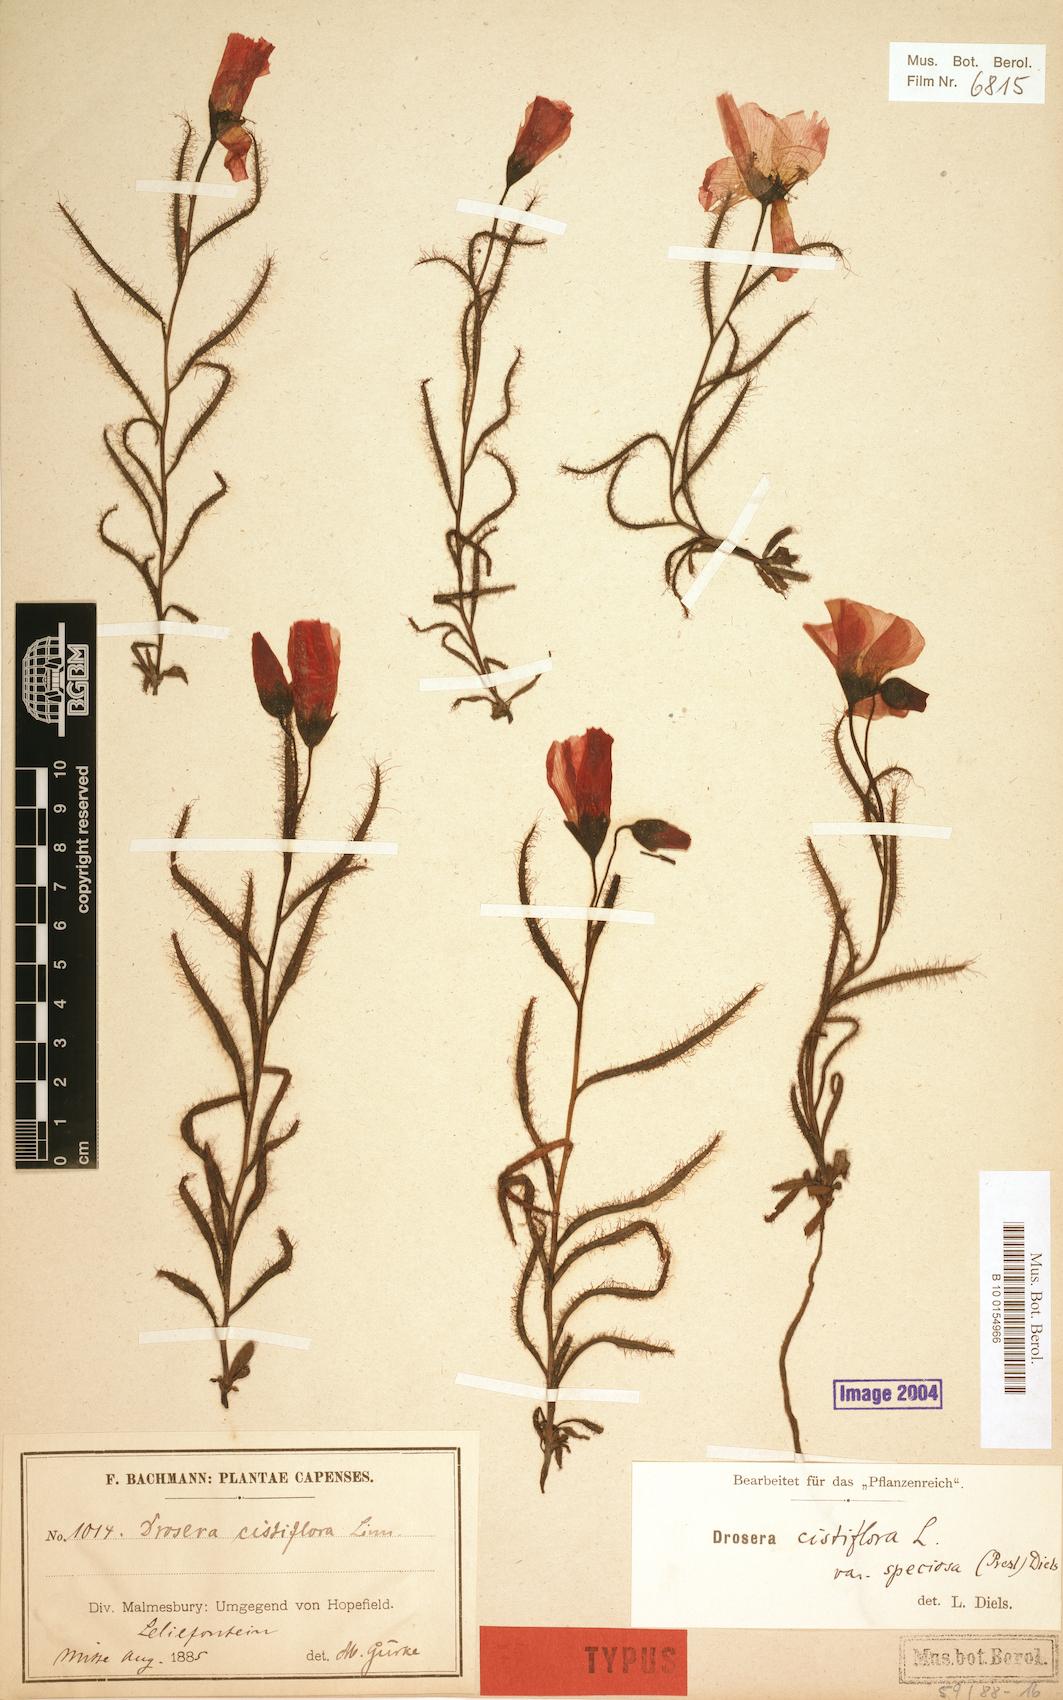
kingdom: Plantae
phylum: Tracheophyta
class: Magnoliopsida
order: Caryophyllales
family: Droseraceae
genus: Drosera
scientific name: Drosera cistiflora
